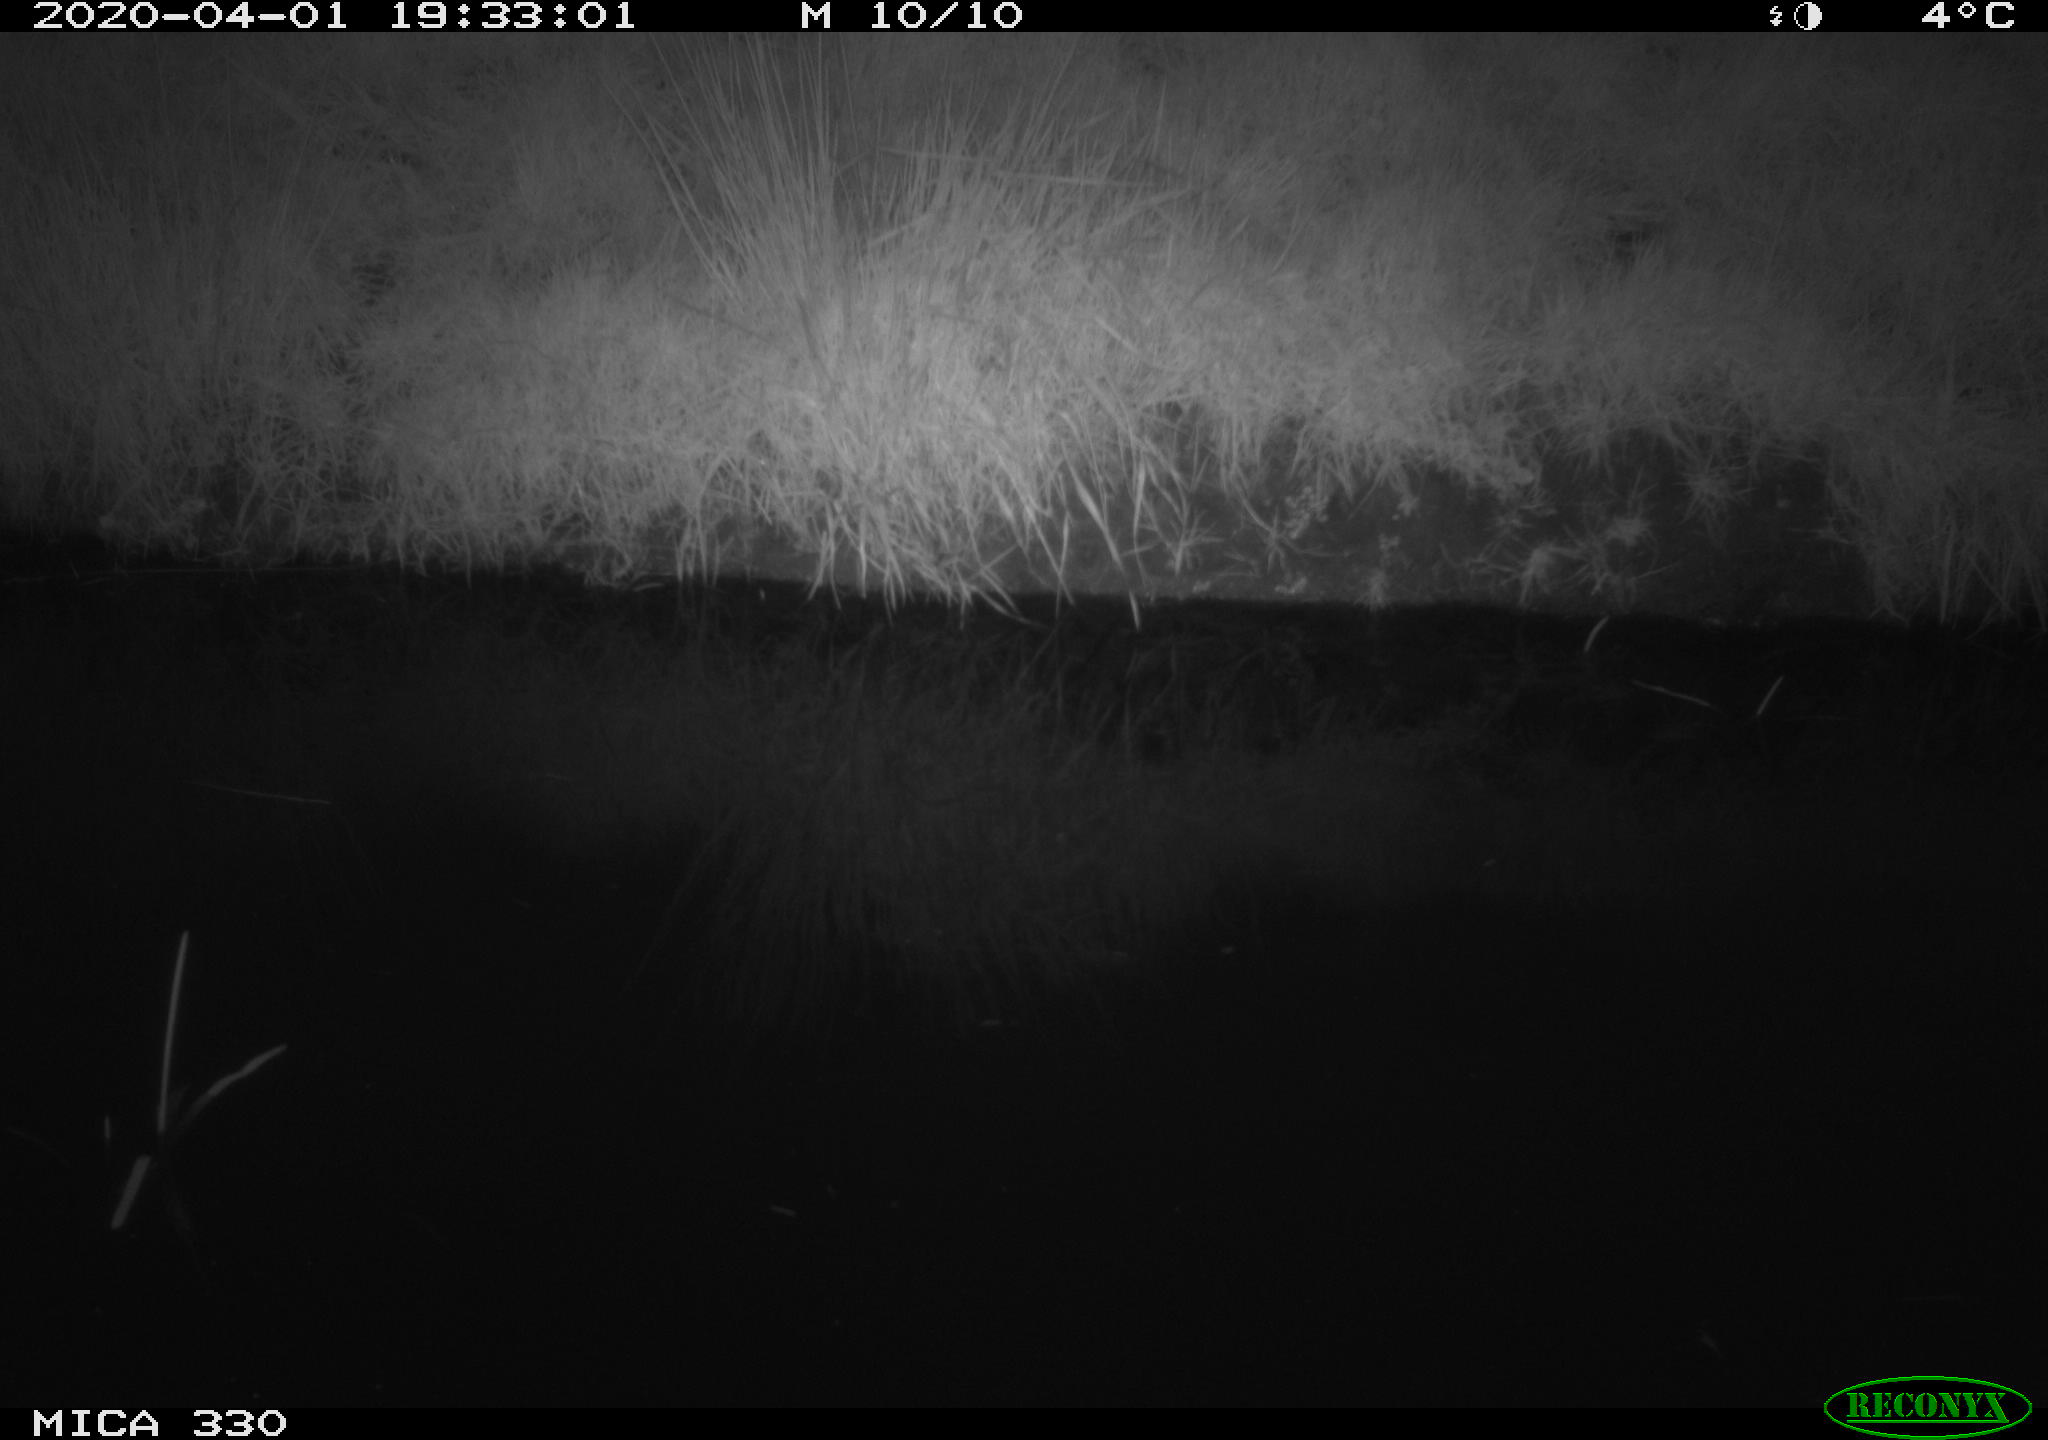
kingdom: Animalia
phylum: Chordata
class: Aves
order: Anseriformes
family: Anatidae
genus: Anas
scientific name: Anas platyrhynchos
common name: Mallard
